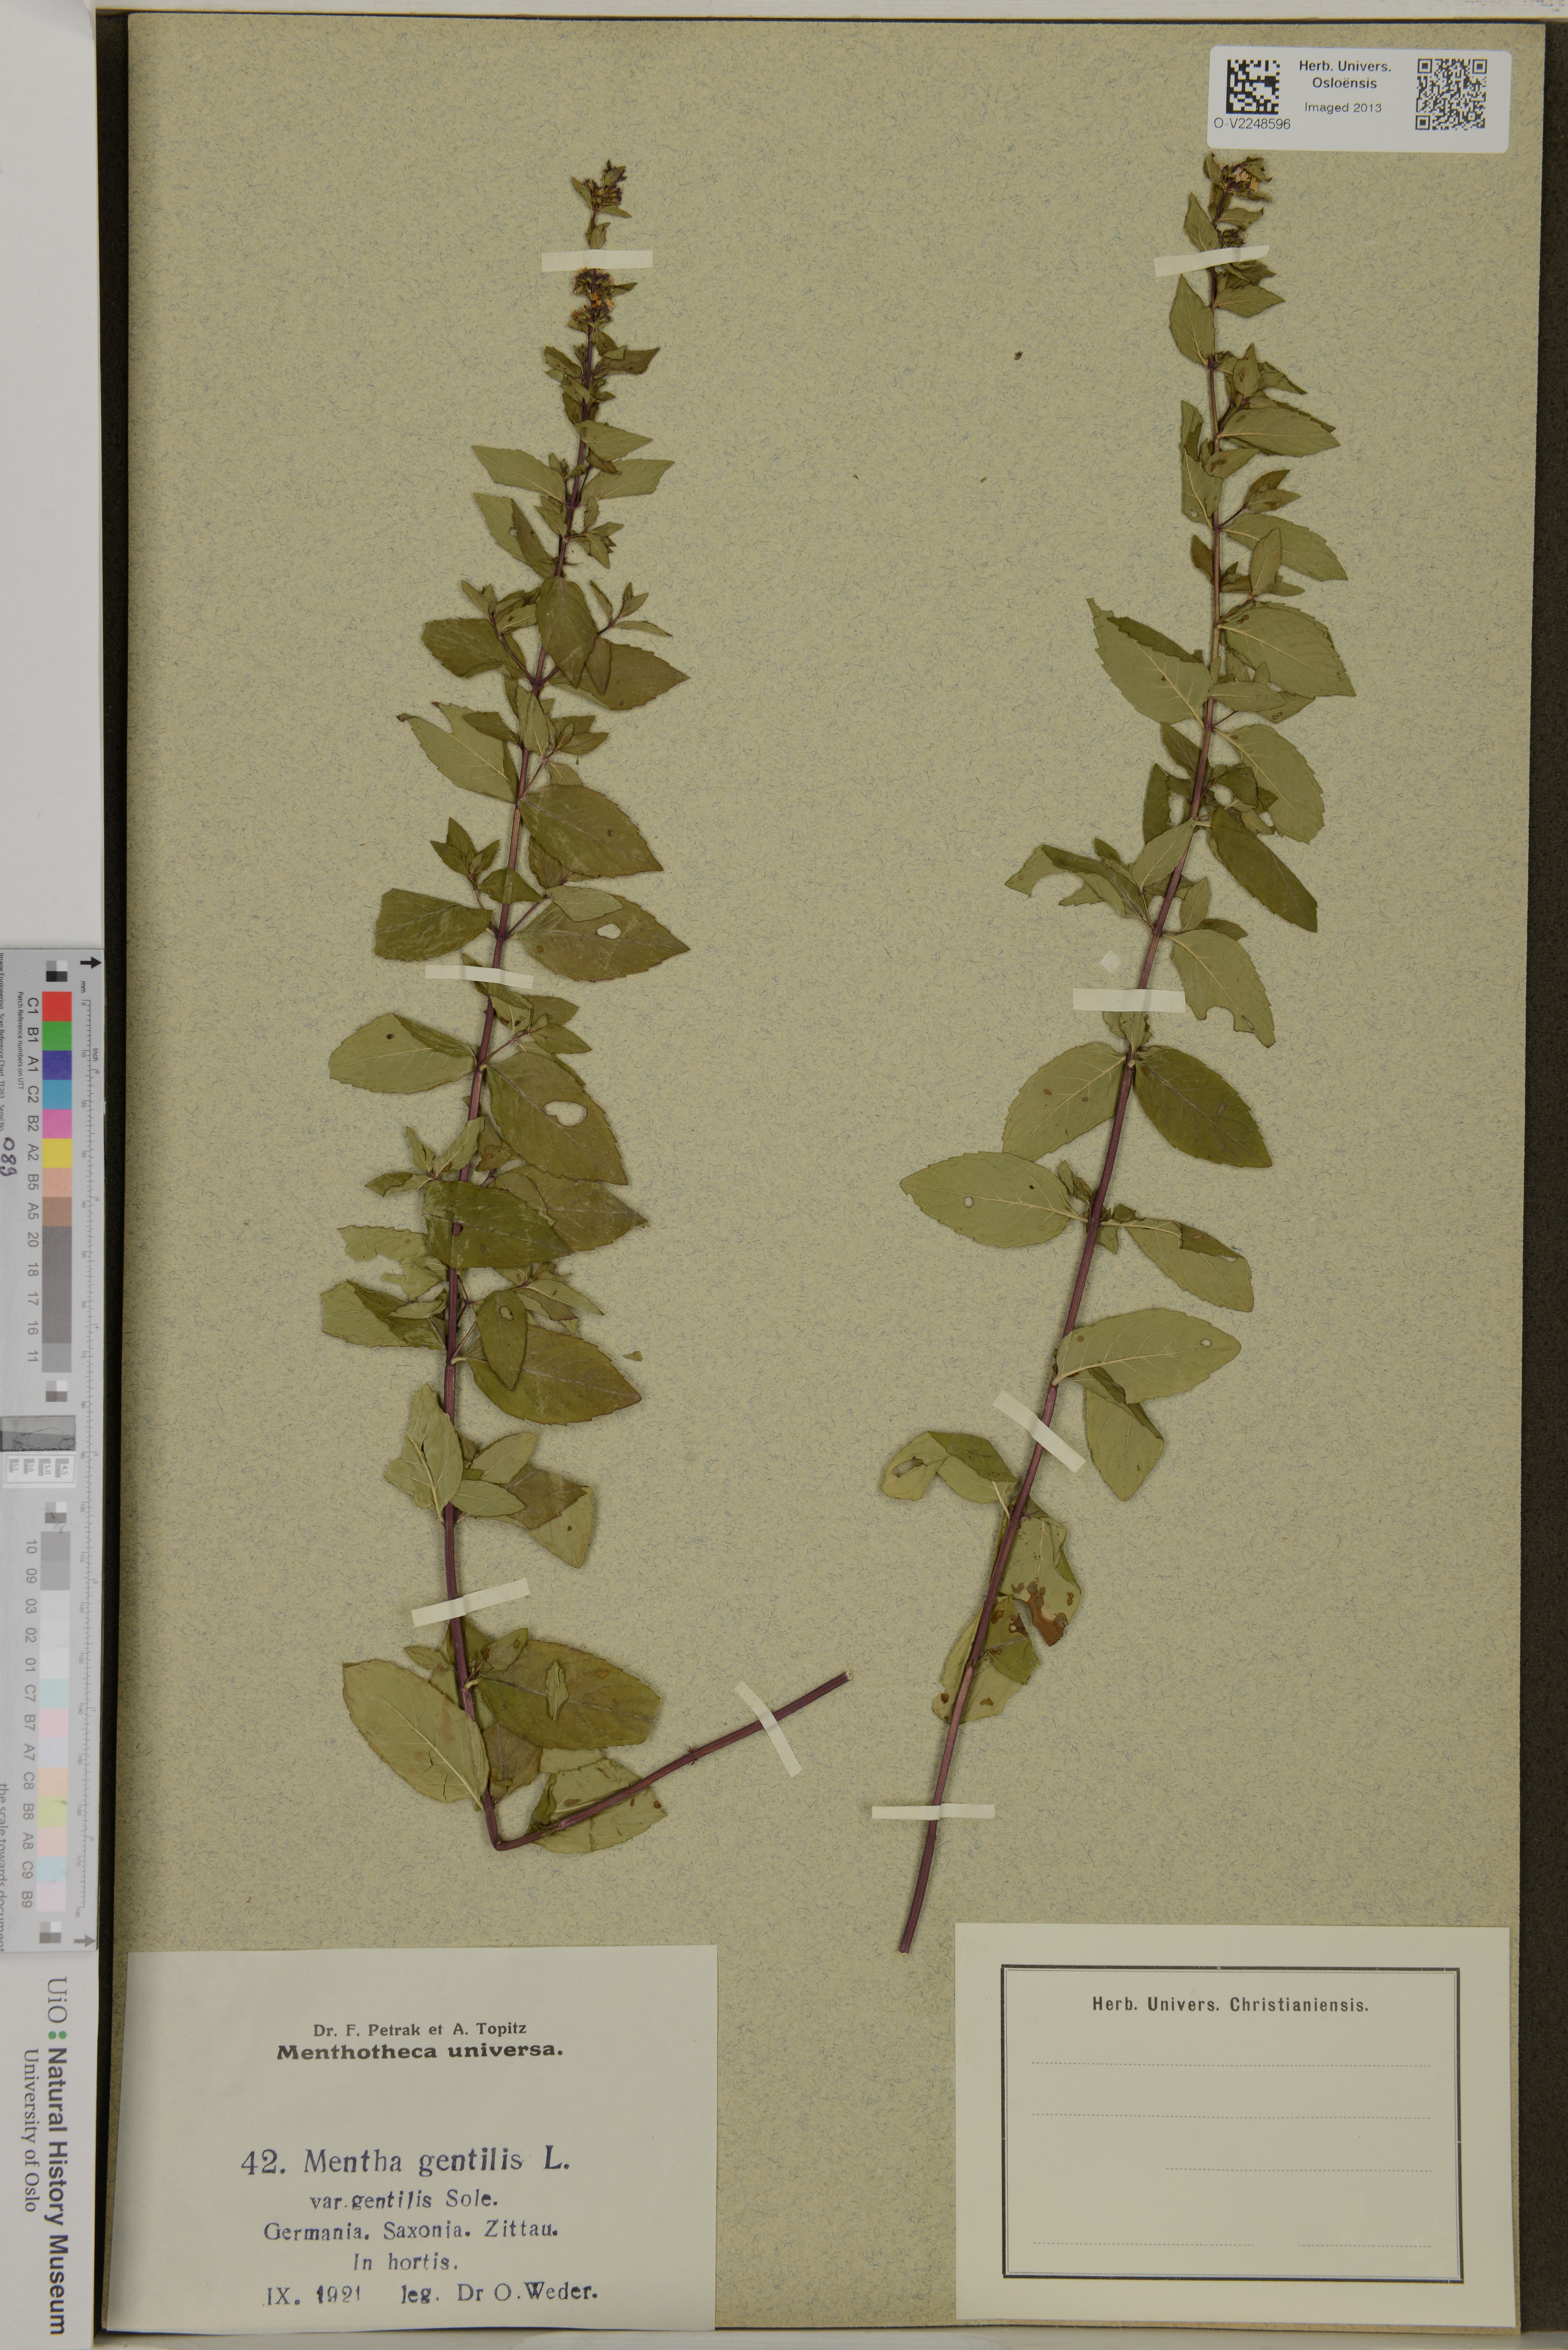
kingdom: Plantae
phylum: Tracheophyta
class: Magnoliopsida
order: Lamiales
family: Lamiaceae
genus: Mentha
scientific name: Mentha arvensis
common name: Corn mint
